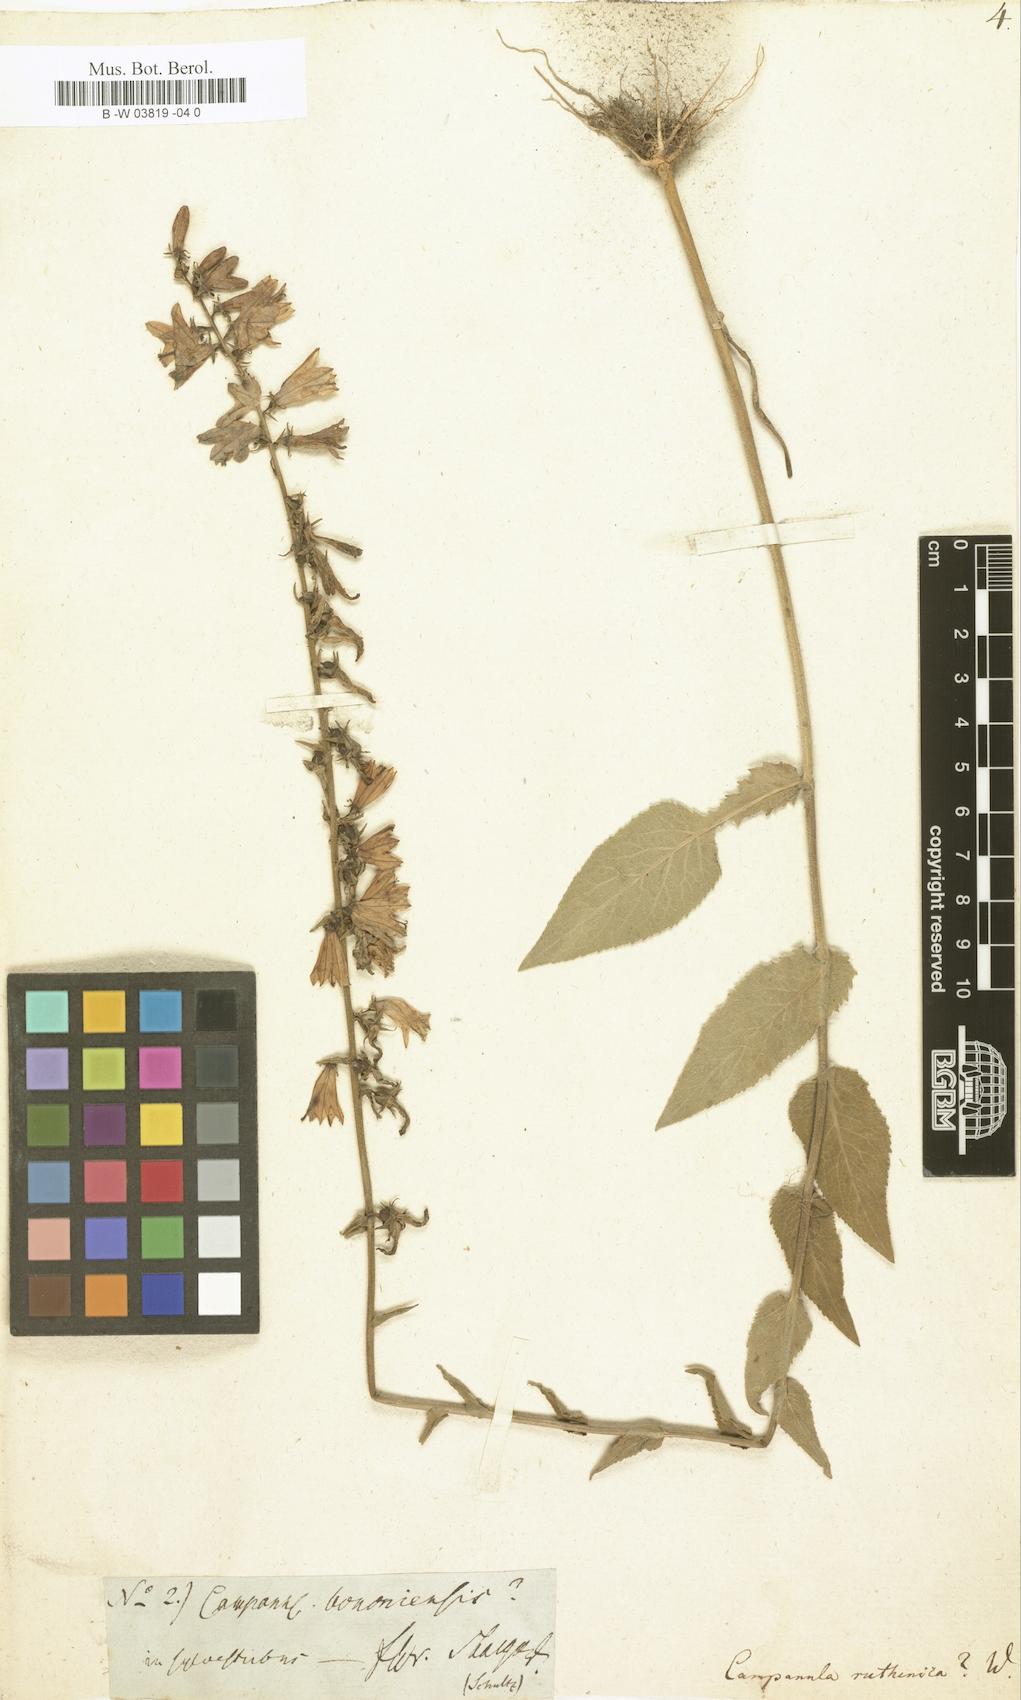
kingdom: Plantae
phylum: Tracheophyta
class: Magnoliopsida
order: Asterales
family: Campanulaceae
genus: Campanula
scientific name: Campanula bononiensis
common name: Pale bellflower
